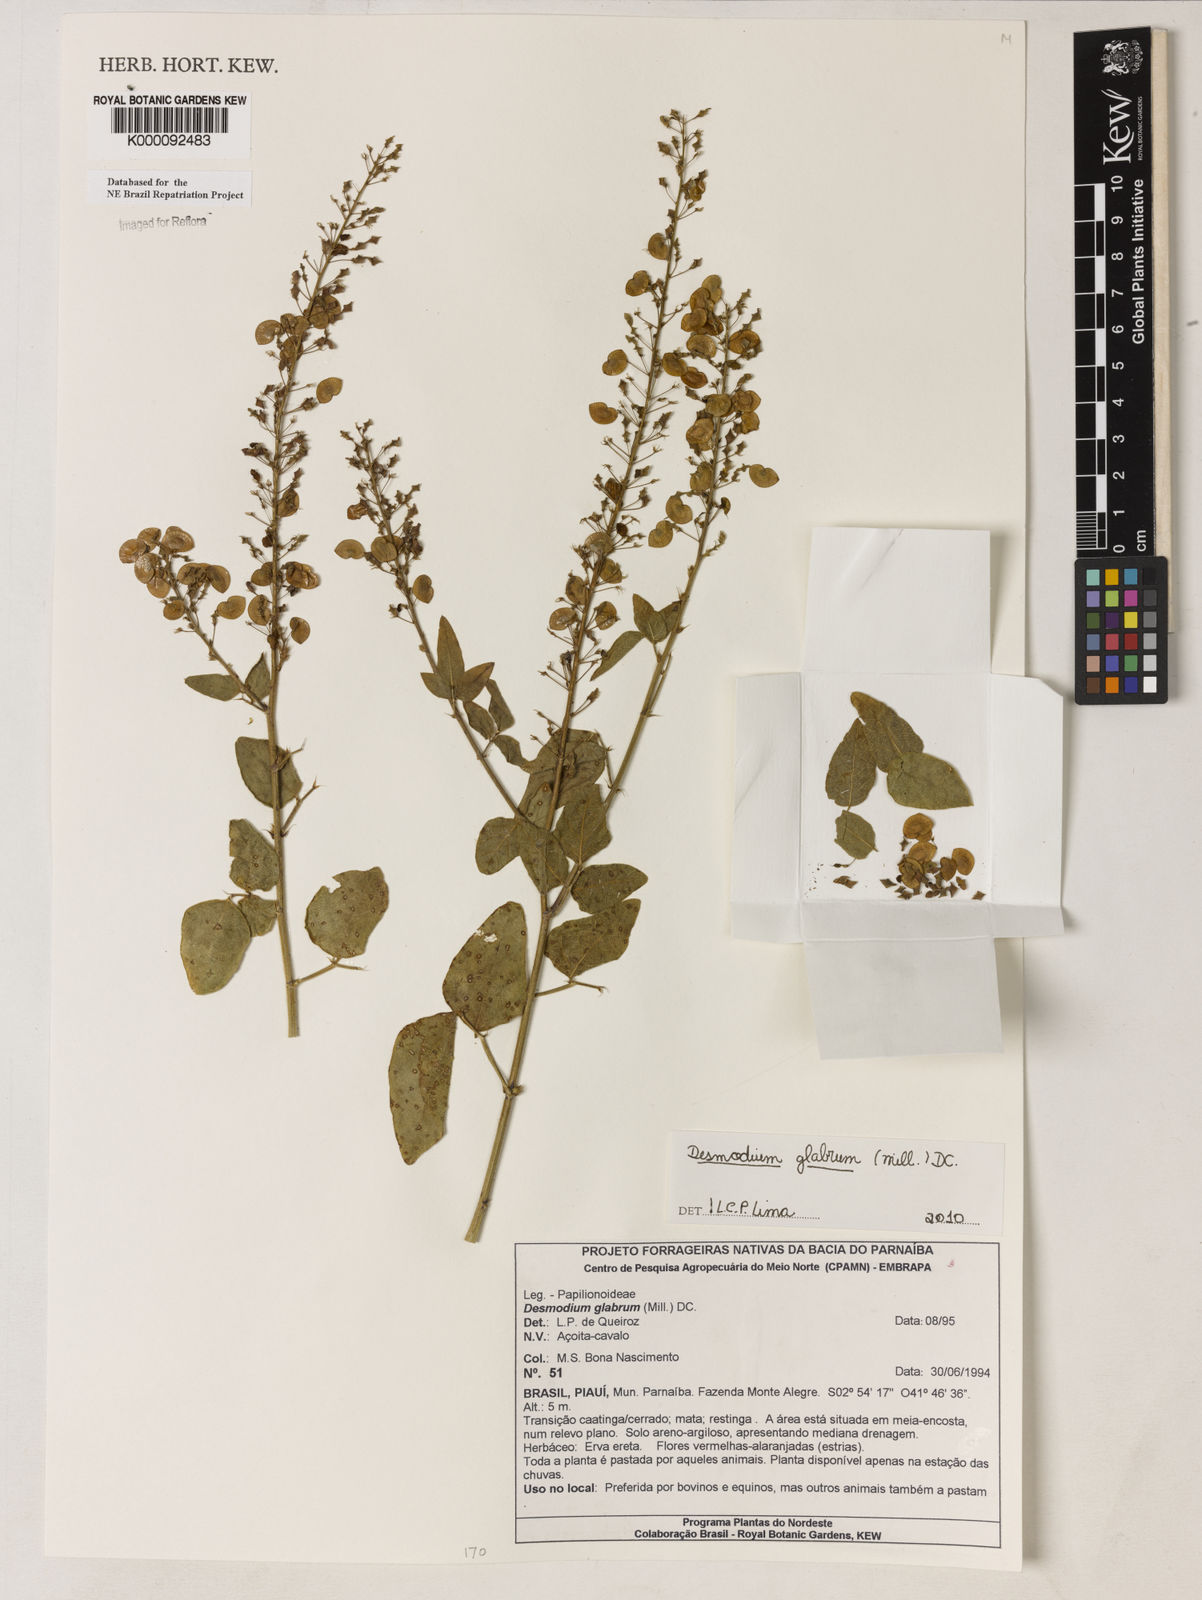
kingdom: Plantae
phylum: Tracheophyta
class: Magnoliopsida
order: Fabales
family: Fabaceae
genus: Desmodium
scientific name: Desmodium glabrum
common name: Zarzabacoa dulce
